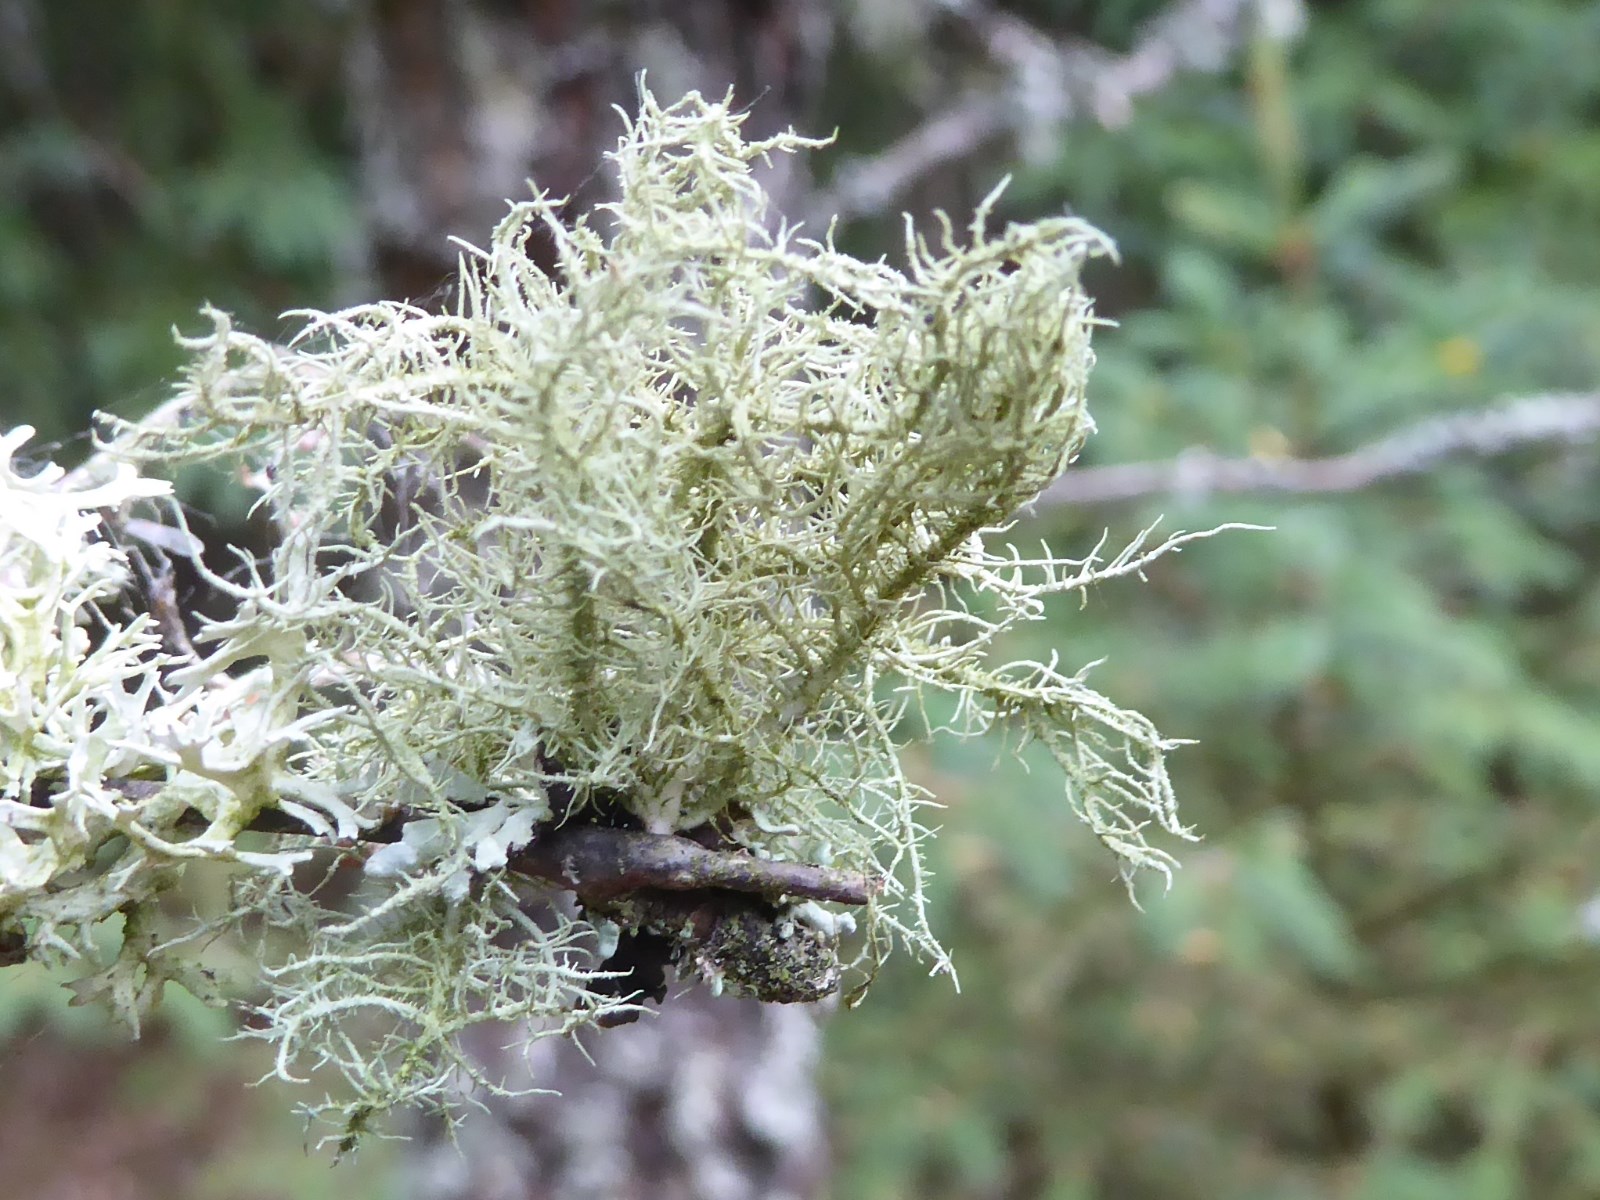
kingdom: Fungi
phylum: Ascomycota
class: Lecanoromycetes
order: Lecanorales
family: Parmeliaceae
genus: Usnea
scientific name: Usnea hirta
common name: liden skæglav
